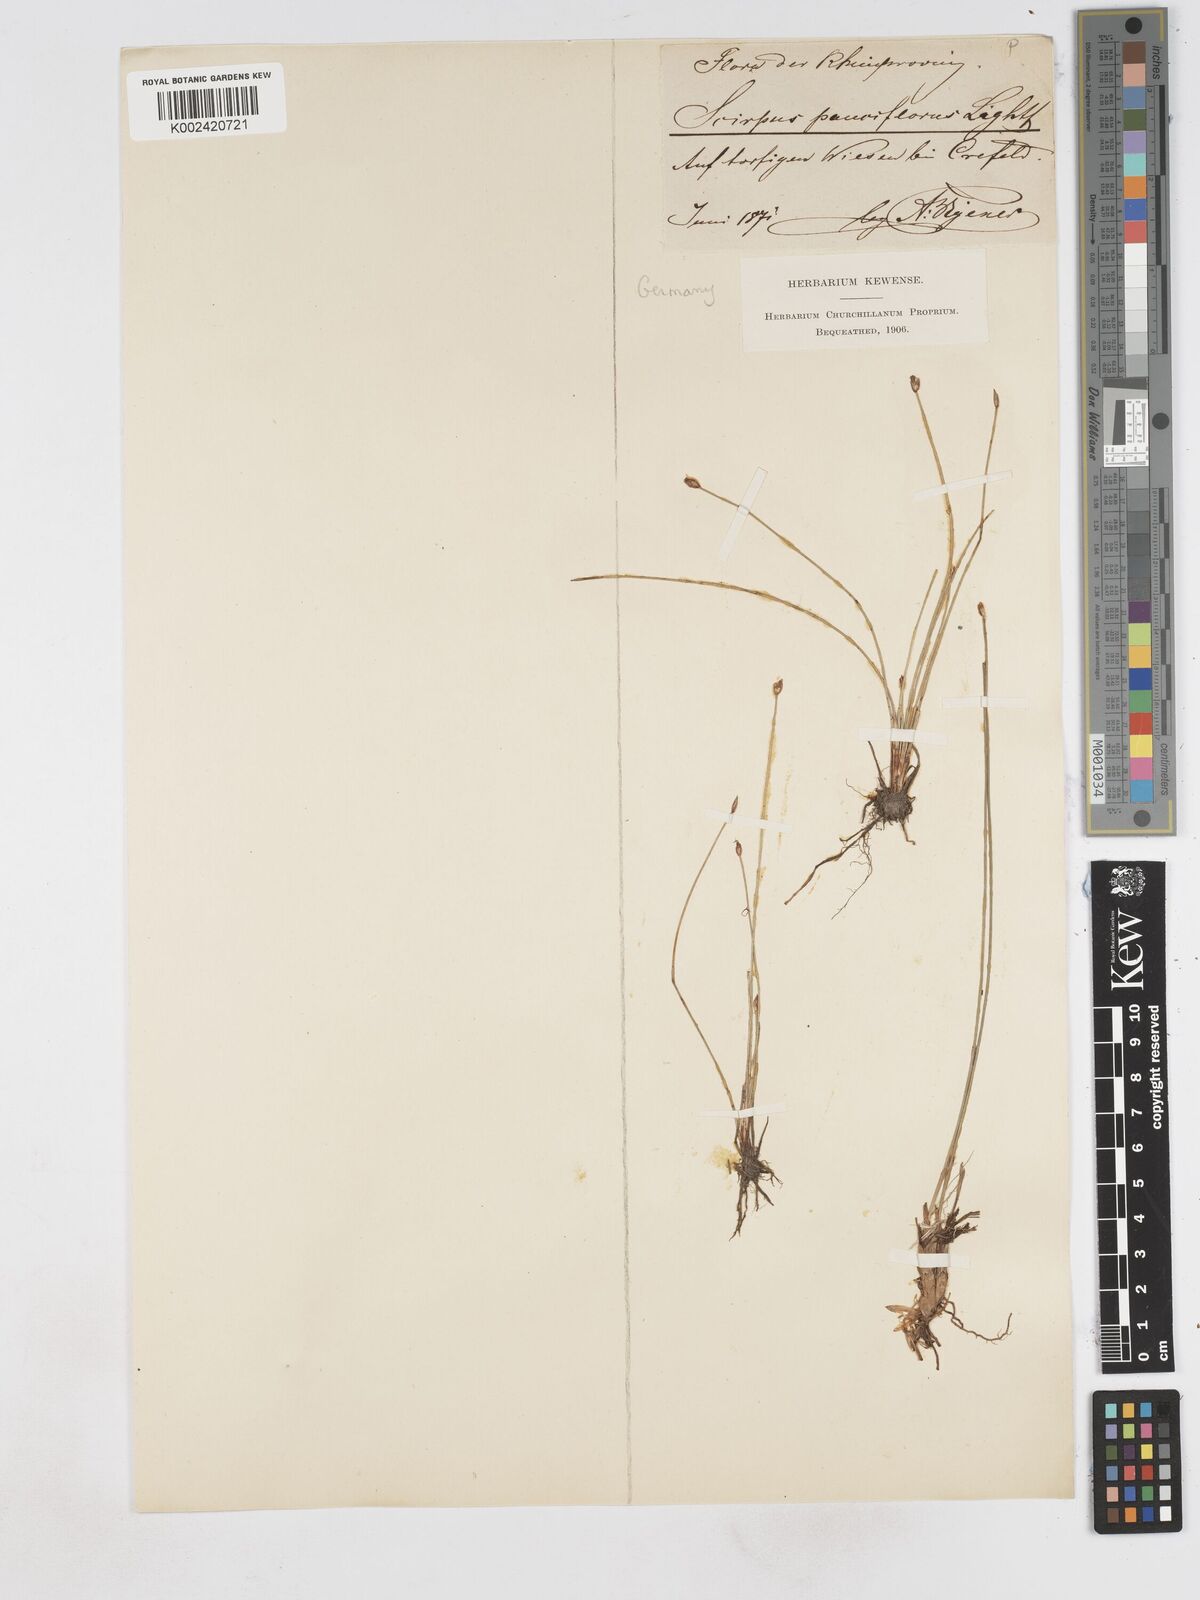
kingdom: Plantae
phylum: Tracheophyta
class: Liliopsida
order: Poales
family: Cyperaceae
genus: Eleocharis
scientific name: Eleocharis quinqueflora
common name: Few-flowered spike-rush
